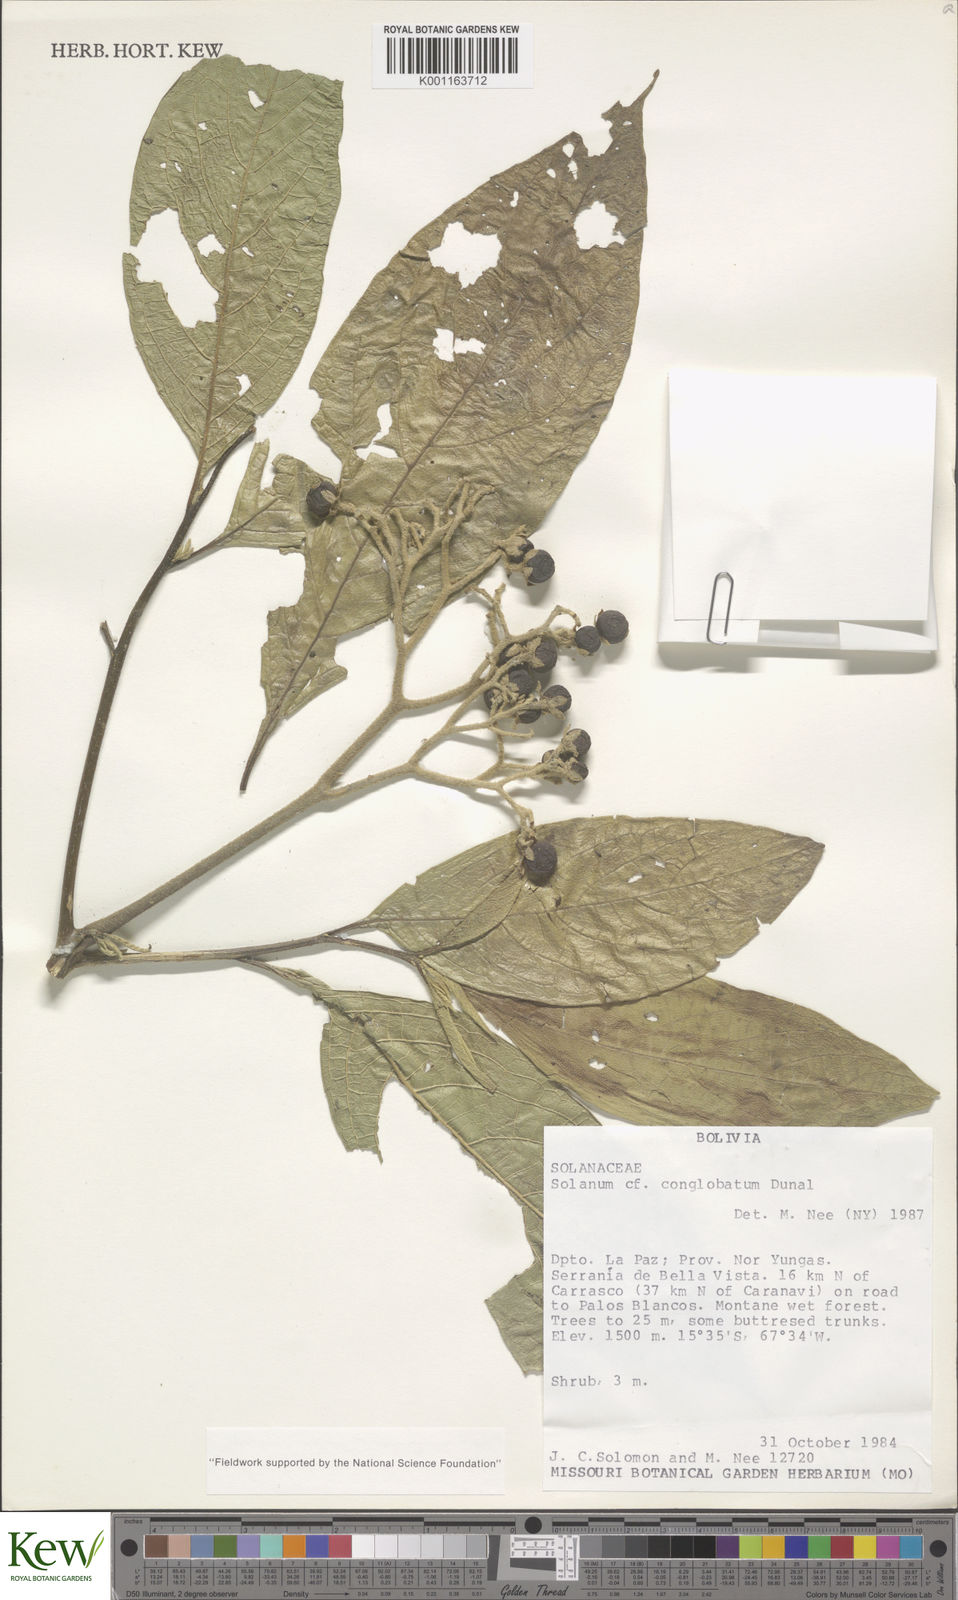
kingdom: Plantae
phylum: Tracheophyta
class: Magnoliopsida
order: Solanales
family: Solanaceae
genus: Solanum
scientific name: Solanum conglobatum
